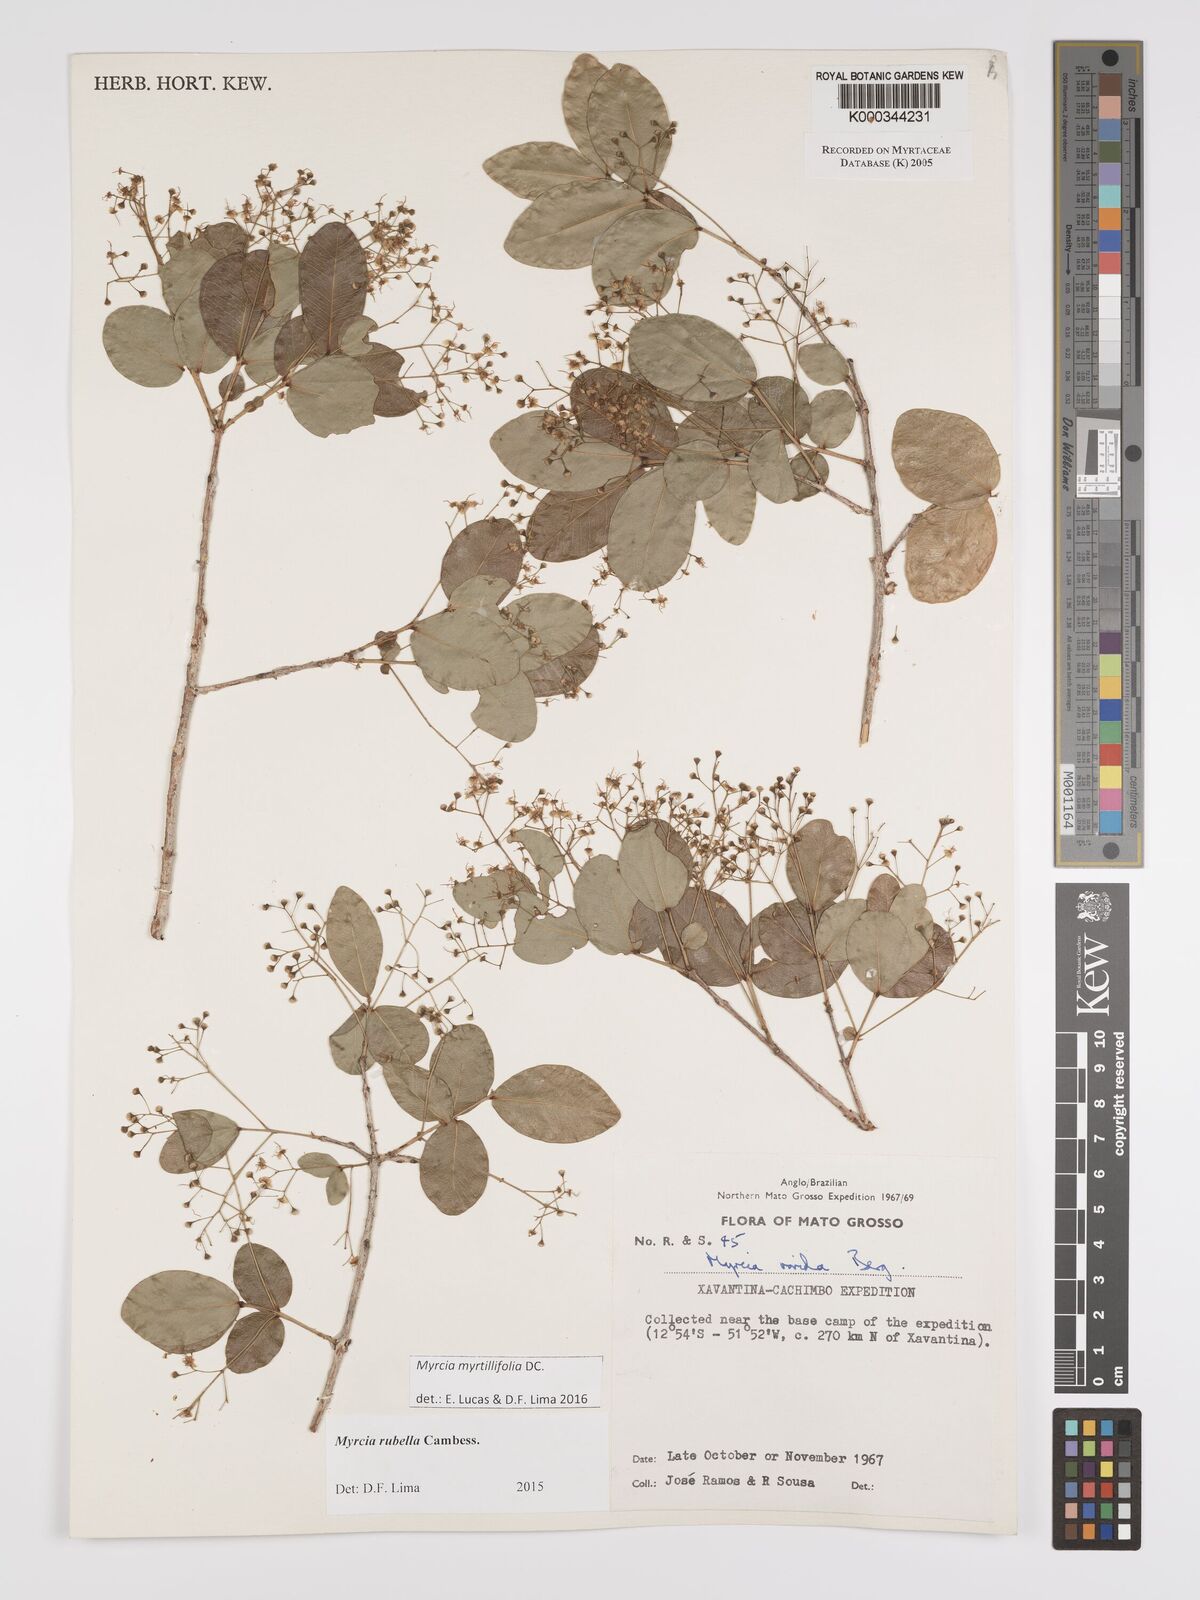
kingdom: Plantae
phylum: Tracheophyta
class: Magnoliopsida
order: Myrtales
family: Myrtaceae
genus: Myrcia
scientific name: Myrcia guianensis
